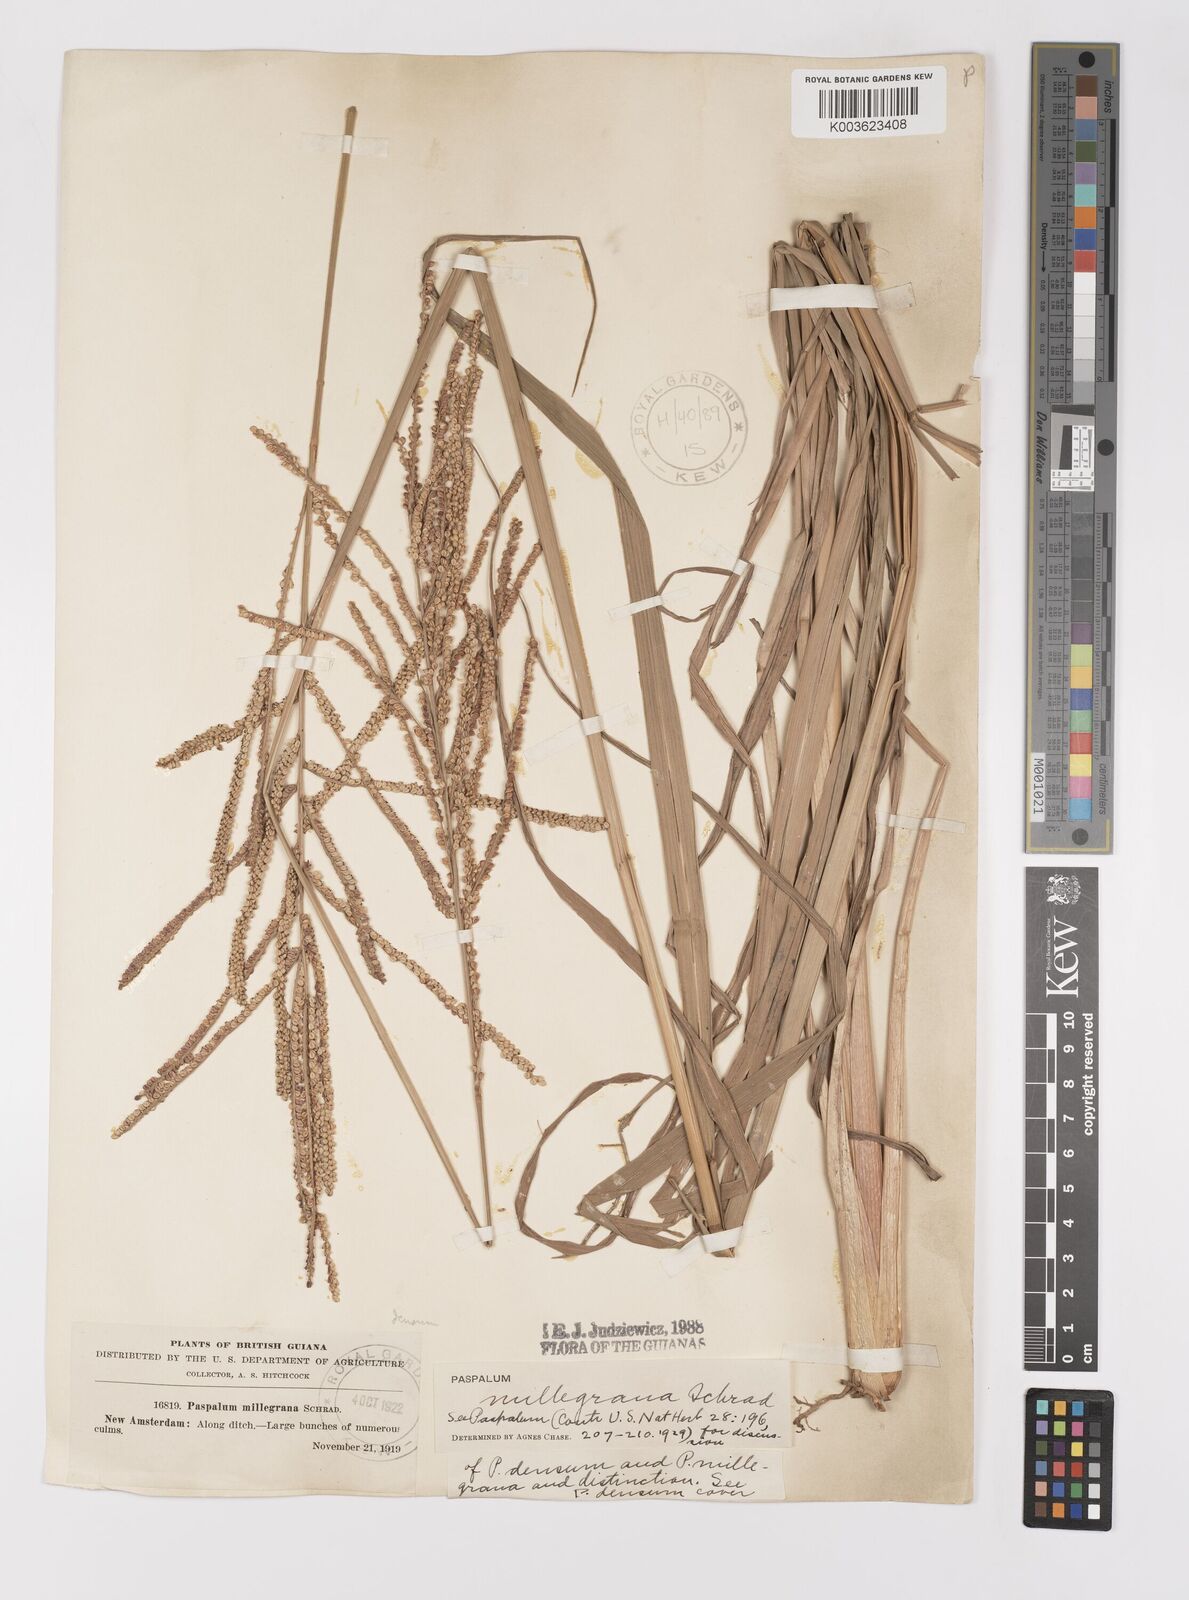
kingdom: Plantae
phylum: Tracheophyta
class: Liliopsida
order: Poales
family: Poaceae
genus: Paspalum
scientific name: Paspalum millegranum
